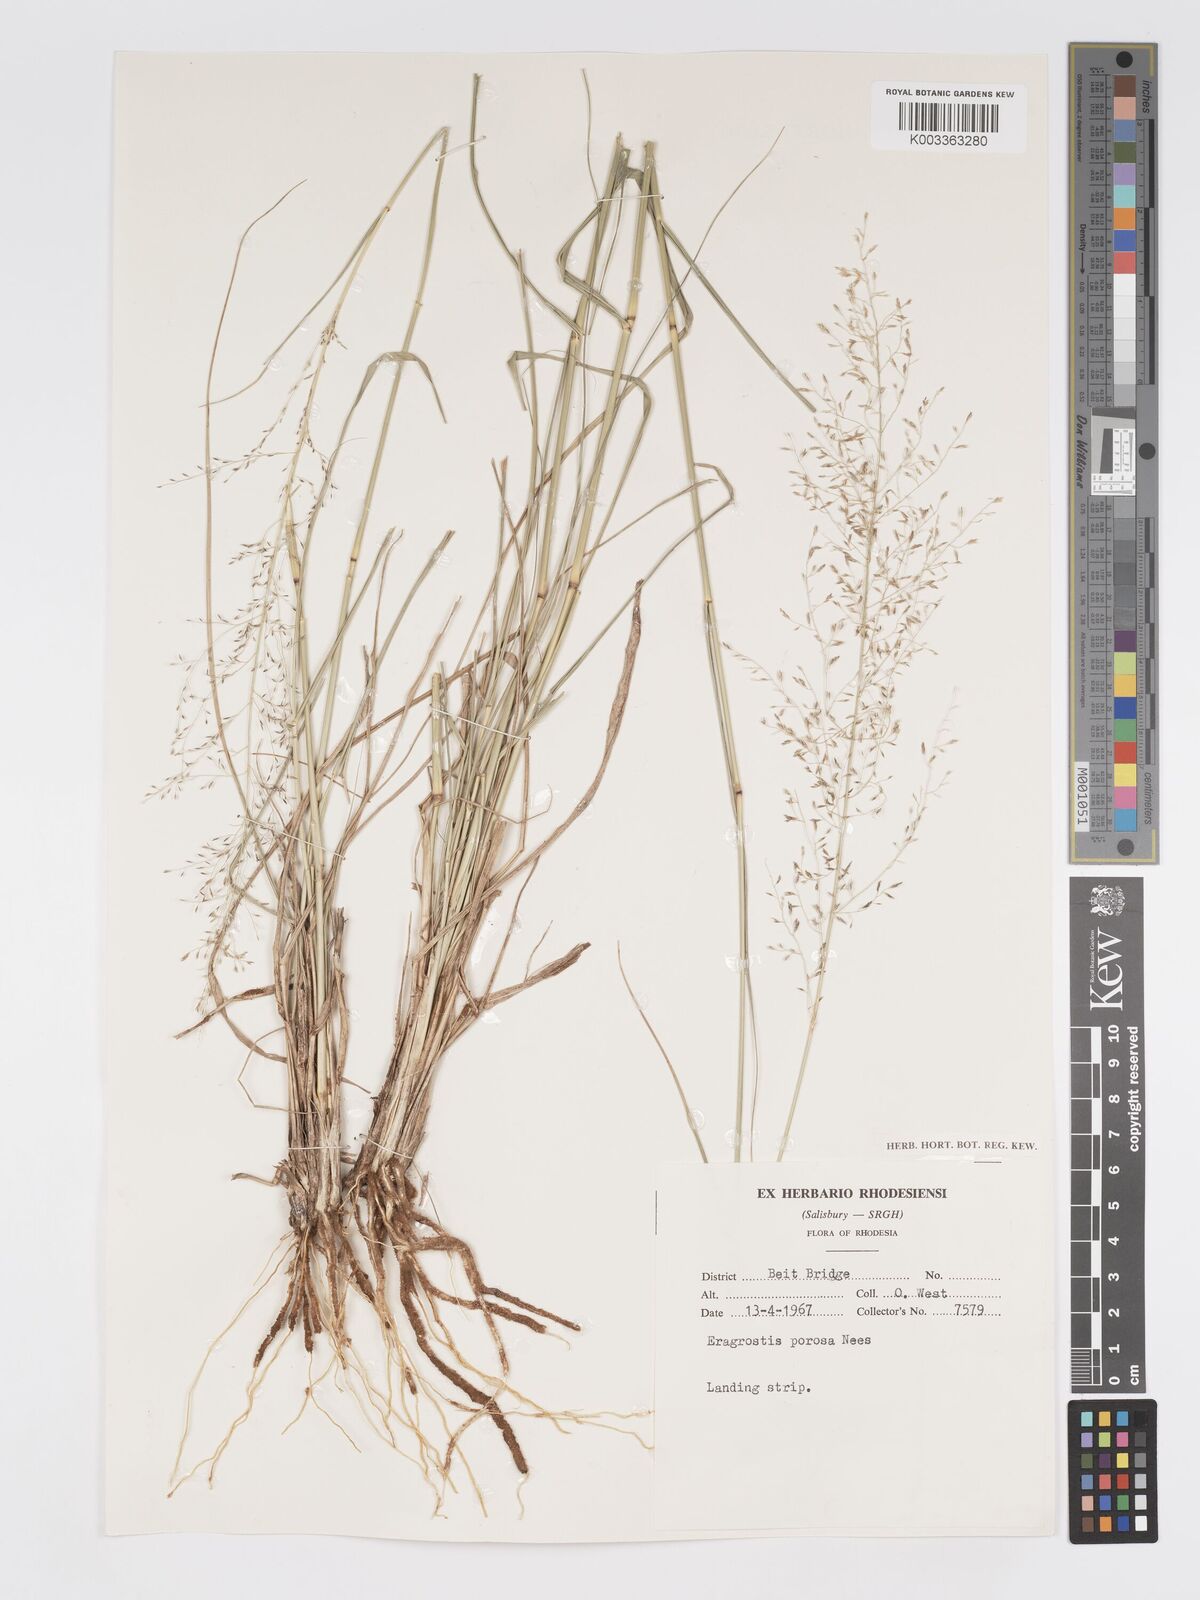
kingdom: Plantae
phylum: Tracheophyta
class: Liliopsida
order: Poales
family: Poaceae
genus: Eragrostis
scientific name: Eragrostis curvula
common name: African love-grass
